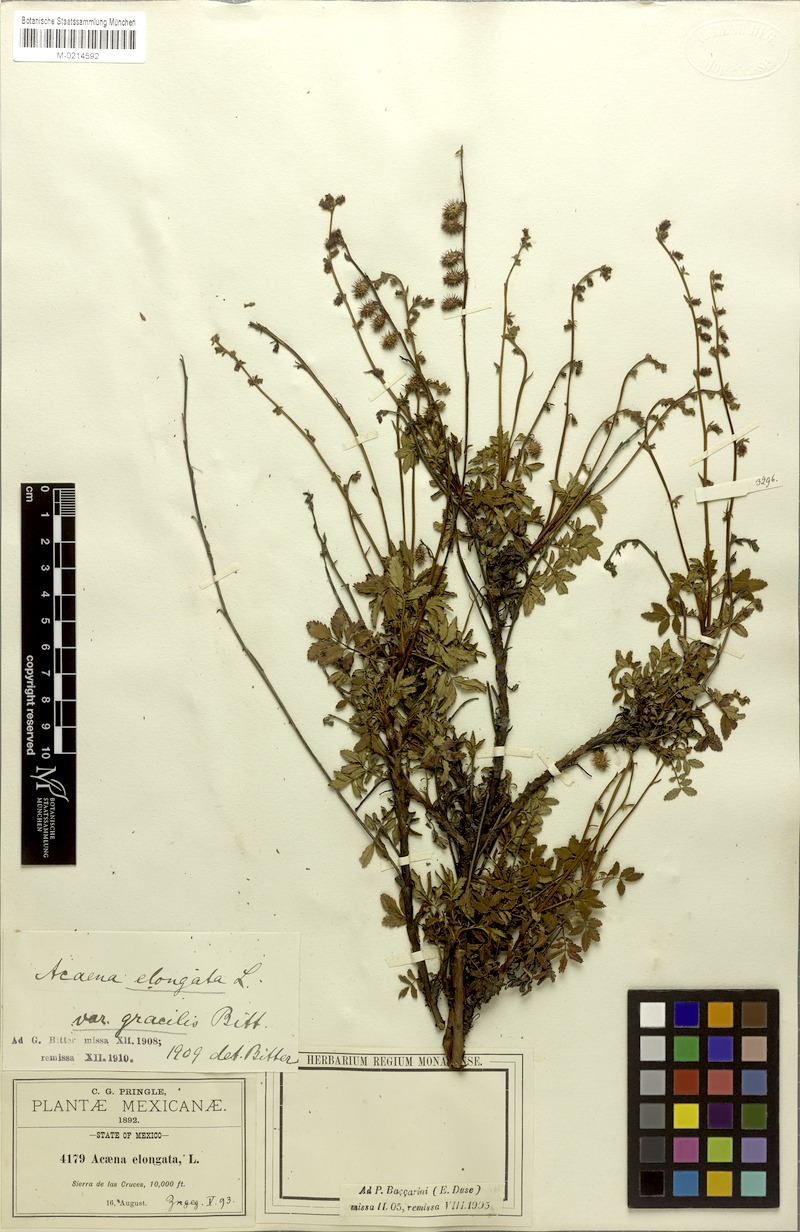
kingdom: Plantae
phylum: Tracheophyta
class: Magnoliopsida
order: Rosales
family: Rosaceae
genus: Acaena
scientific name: Acaena elongata
